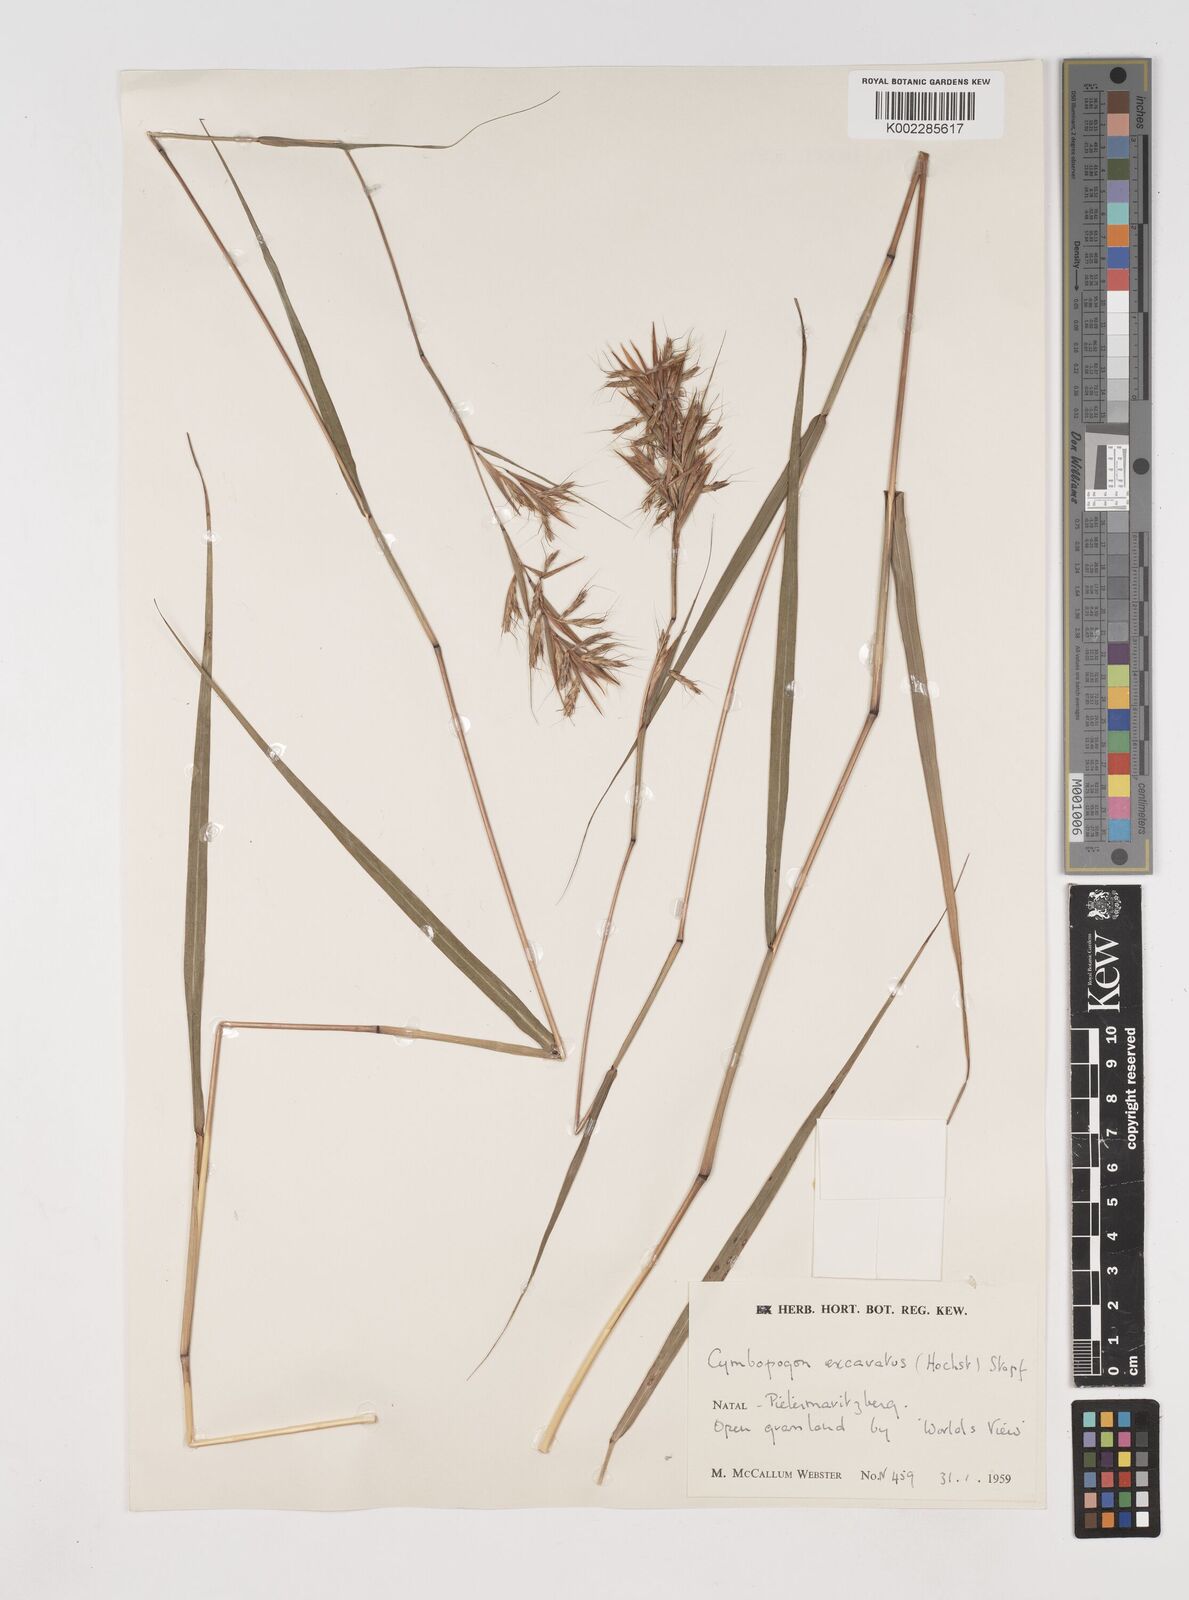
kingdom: Plantae
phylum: Tracheophyta
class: Liliopsida
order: Poales
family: Poaceae
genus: Cymbopogon
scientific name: Cymbopogon caesius
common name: Kachi grass
